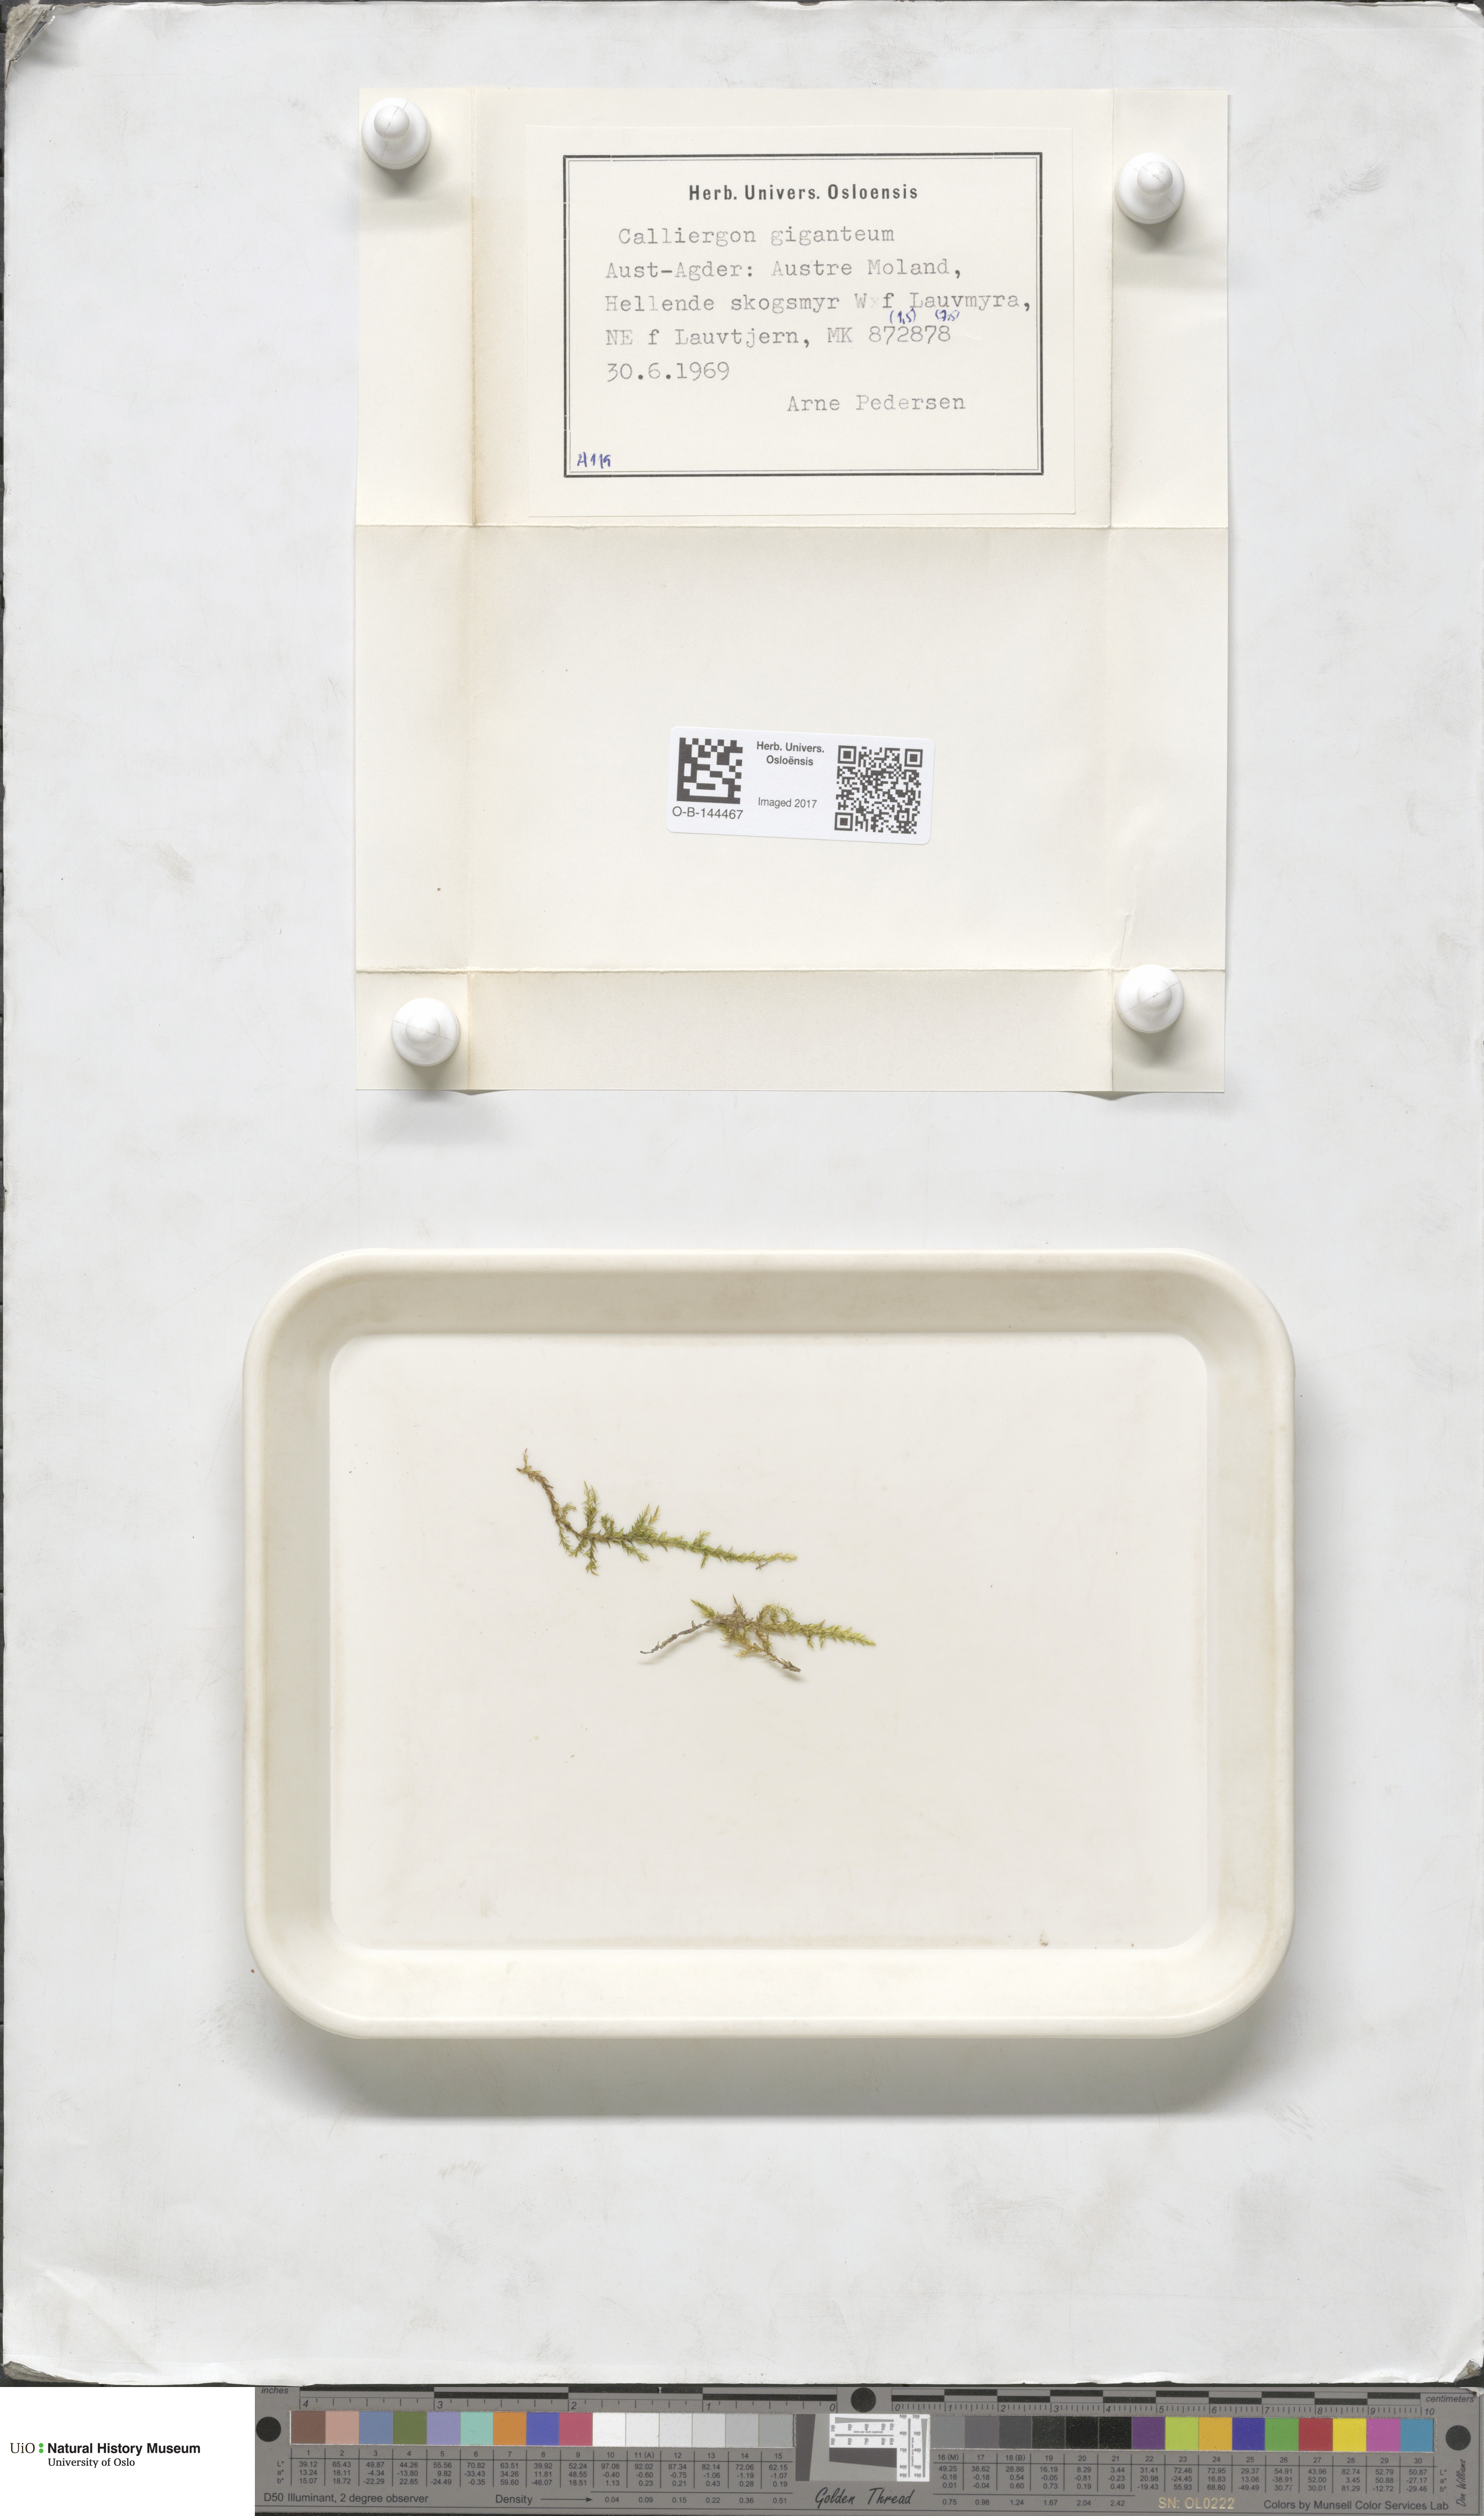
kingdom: Plantae
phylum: Bryophyta
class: Bryopsida
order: Hypnales
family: Calliergonaceae
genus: Calliergon
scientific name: Calliergon giganteum
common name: Giant spear moss
